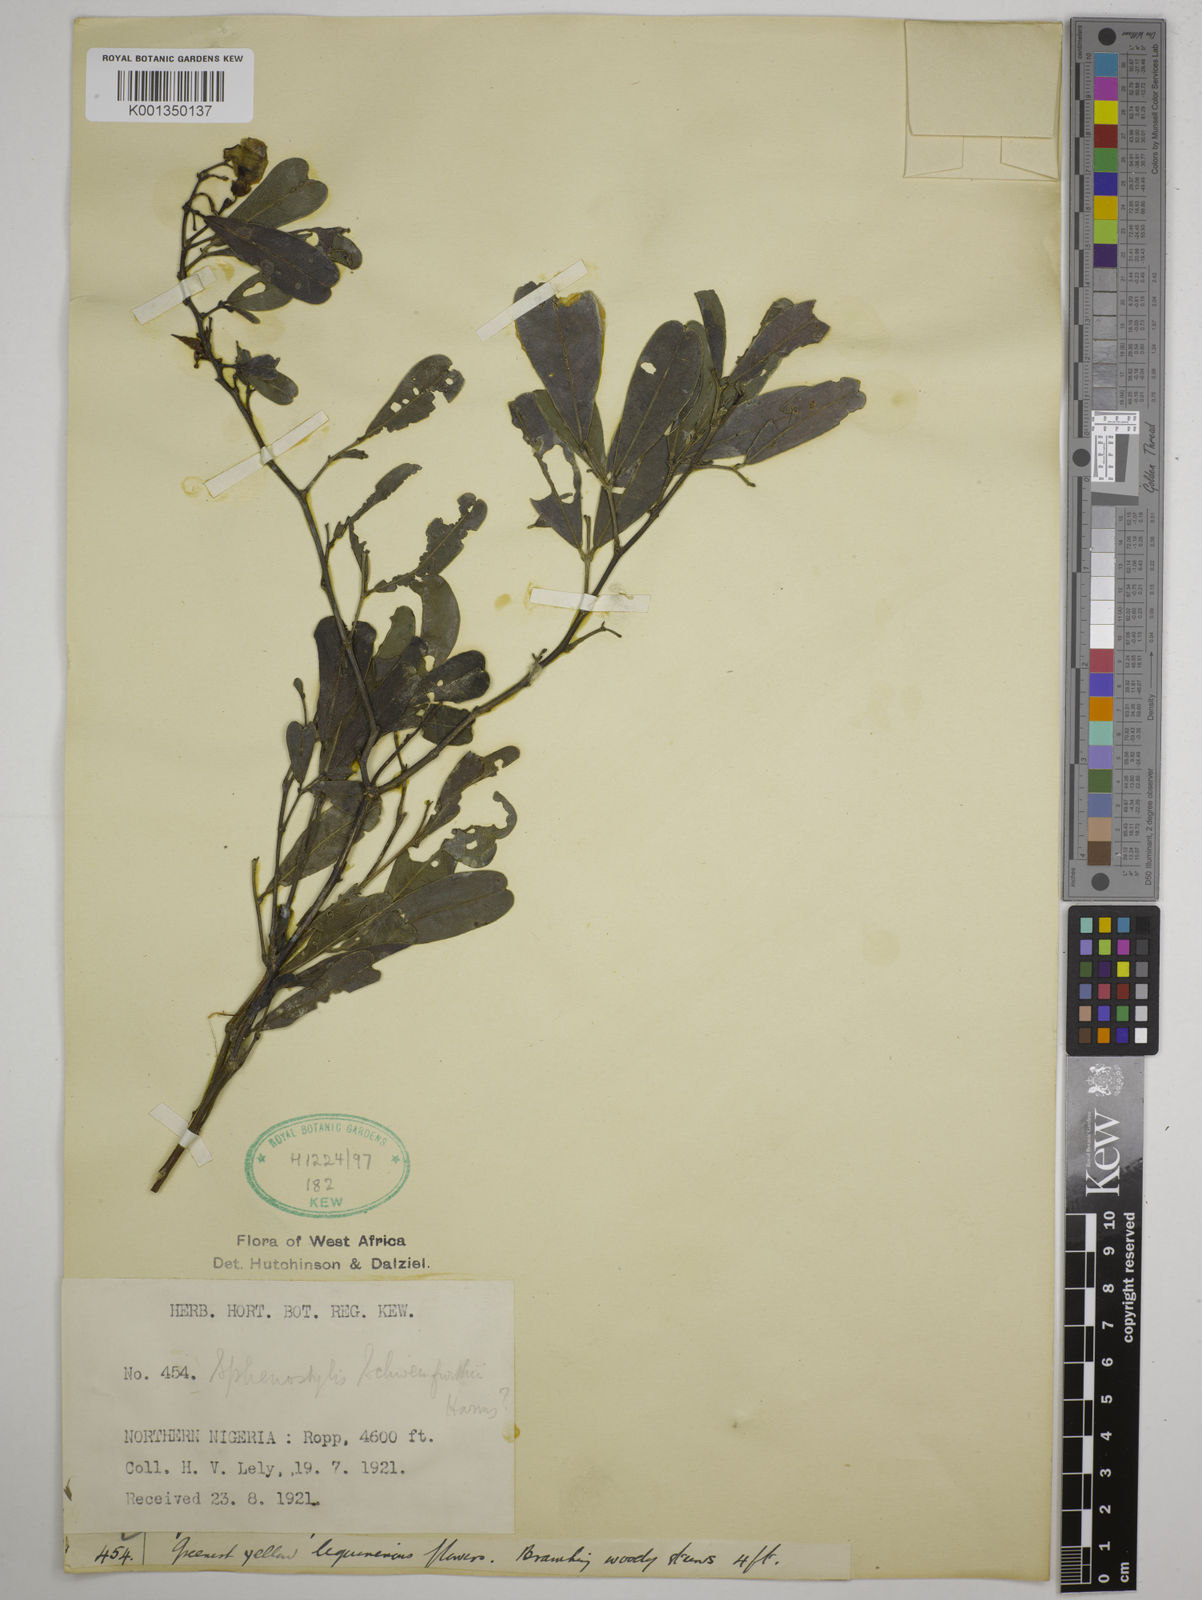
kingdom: Plantae
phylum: Tracheophyta
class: Magnoliopsida
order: Fabales
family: Fabaceae
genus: Sphenostylis
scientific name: Sphenostylis schweinfurthii
